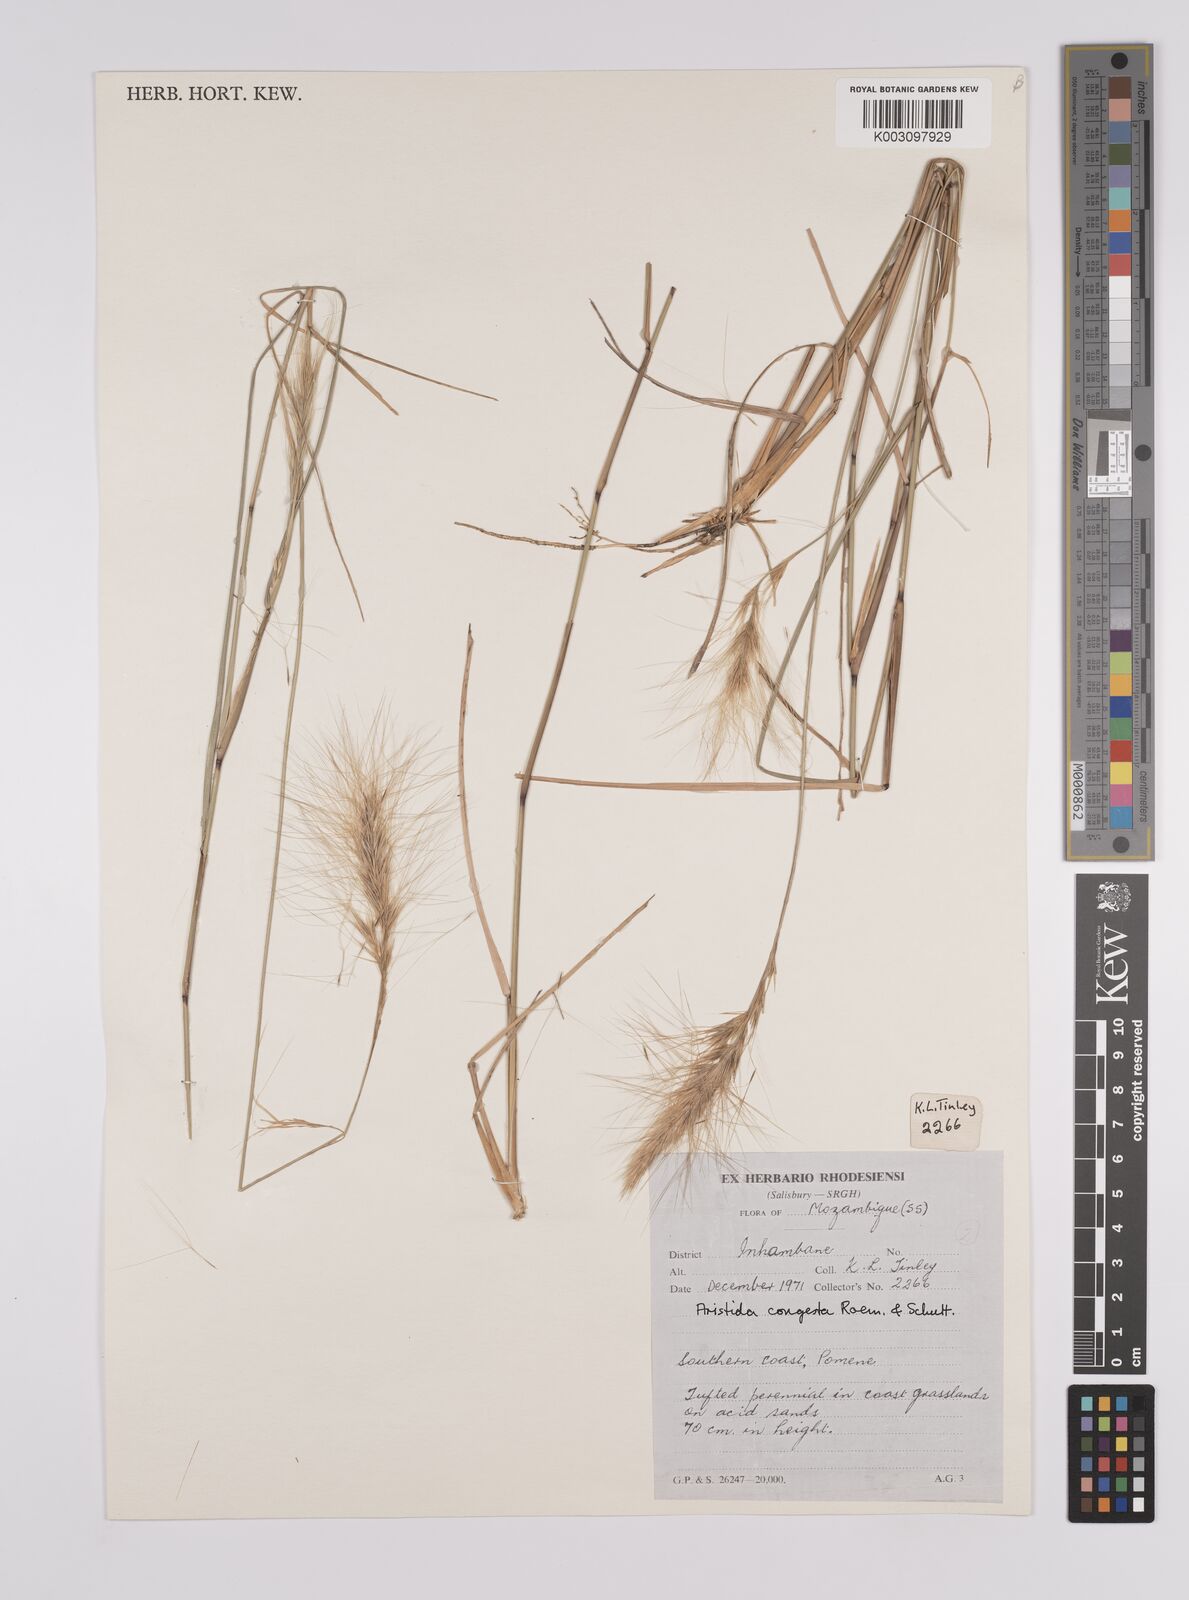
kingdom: Plantae
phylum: Tracheophyta
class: Liliopsida
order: Poales
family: Poaceae
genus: Aristida
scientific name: Aristida congesta
